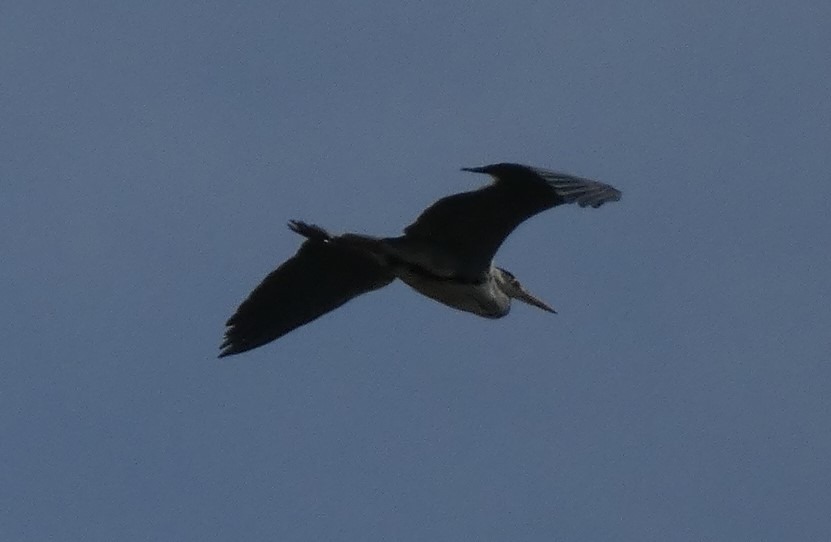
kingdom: Animalia
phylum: Chordata
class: Aves
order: Pelecaniformes
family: Ardeidae
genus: Ardea
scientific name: Ardea cinerea
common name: Fiskehejre
